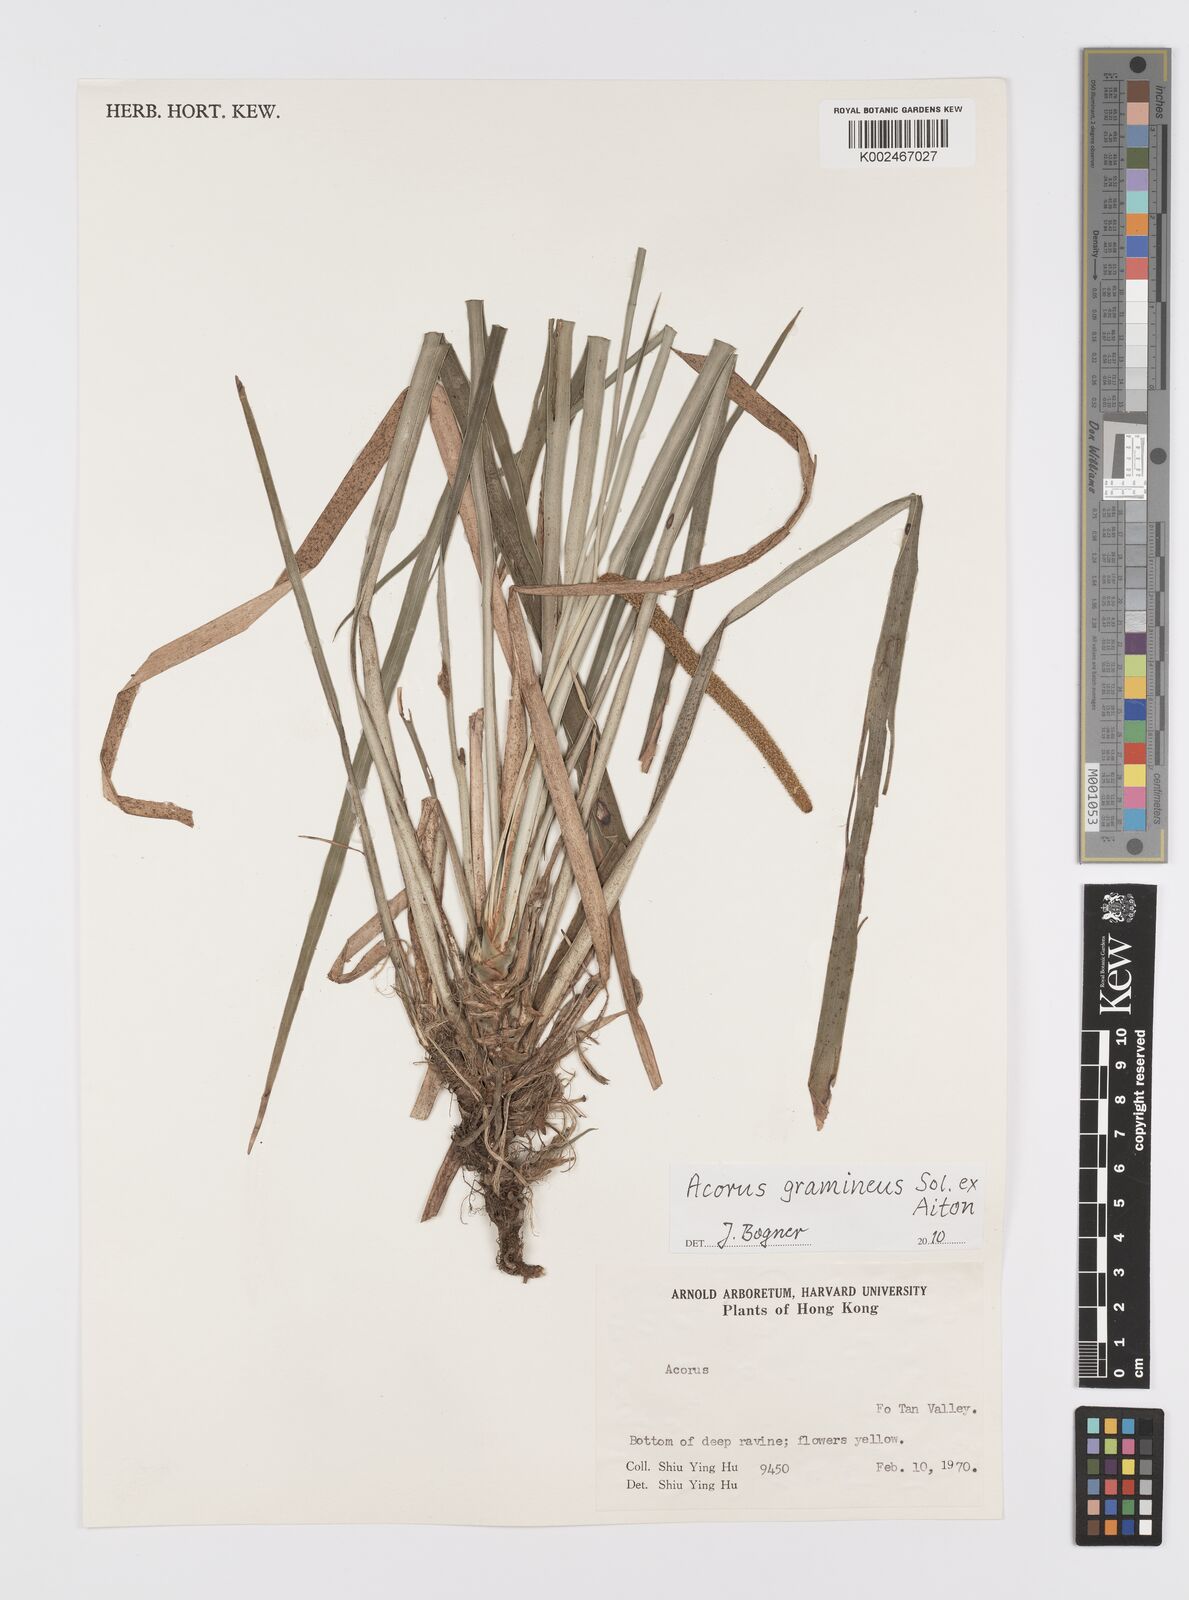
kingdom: Plantae
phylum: Tracheophyta
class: Liliopsida
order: Acorales
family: Acoraceae
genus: Acorus
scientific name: Acorus gramineus
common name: Slender sweet-flag
